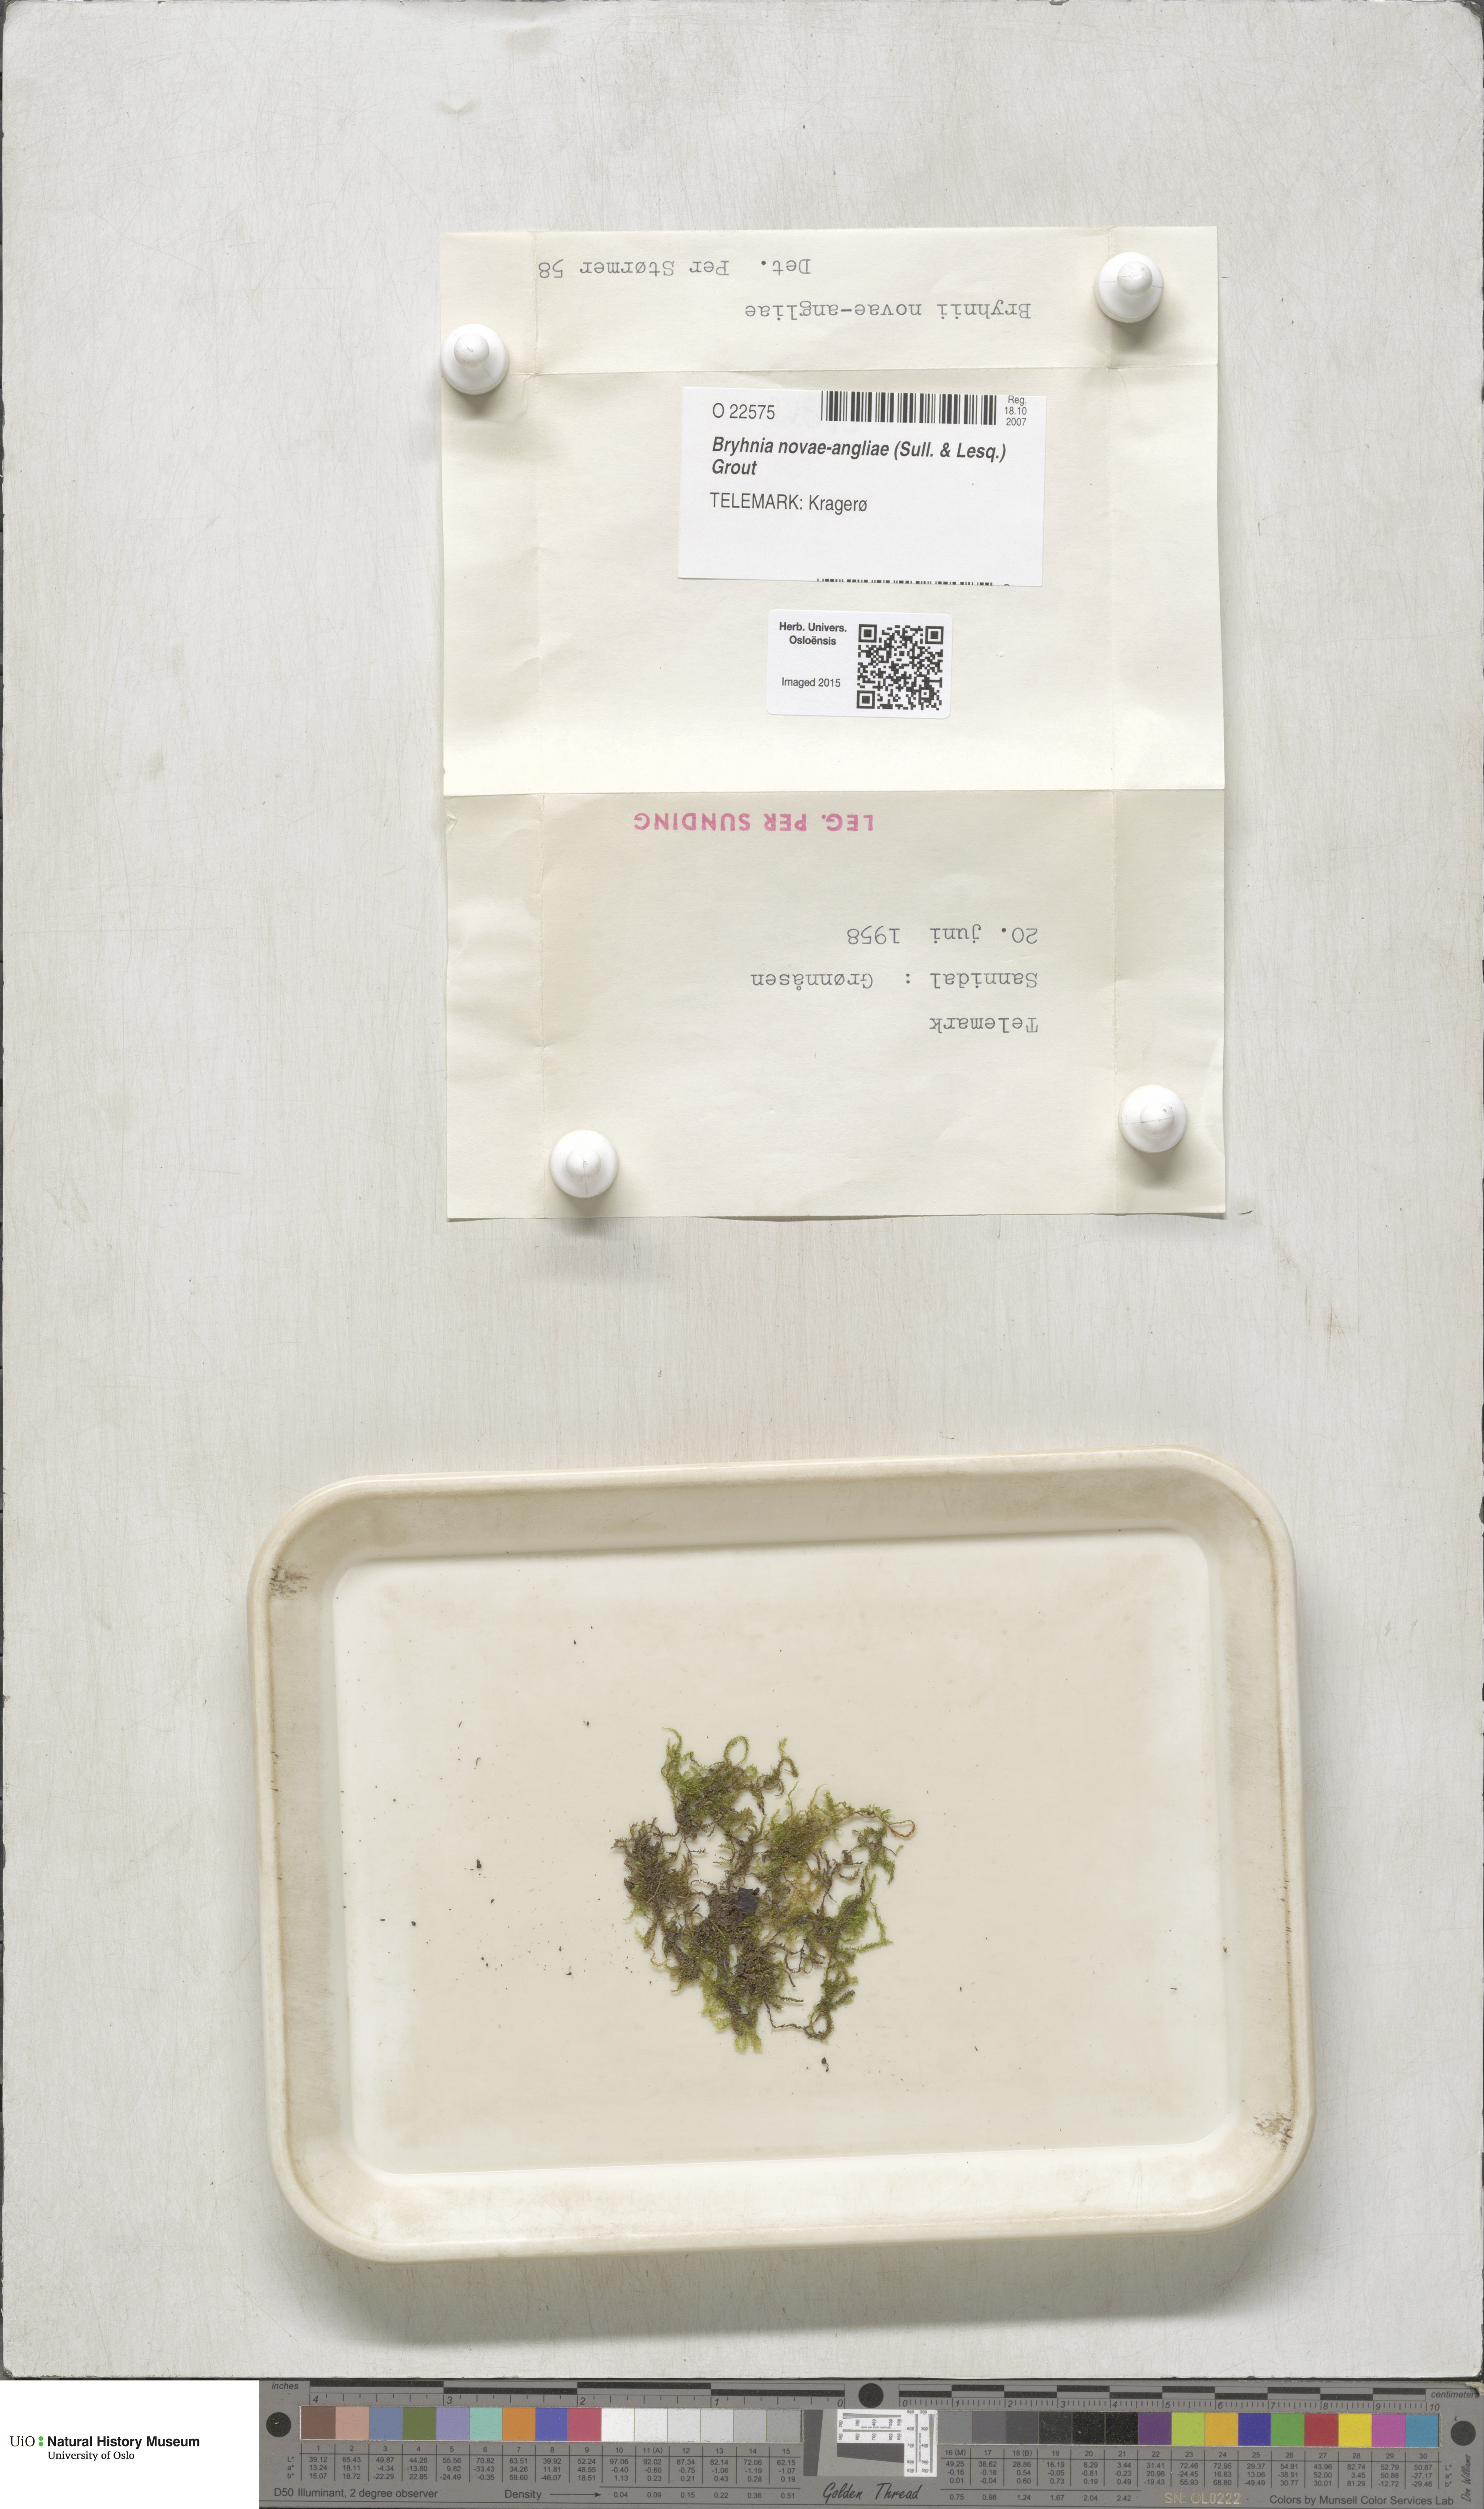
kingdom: Plantae
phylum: Bryophyta
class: Bryopsida
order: Hypnales
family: Brachytheciaceae
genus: Brachythecium
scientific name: Brachythecium novae-angliae
